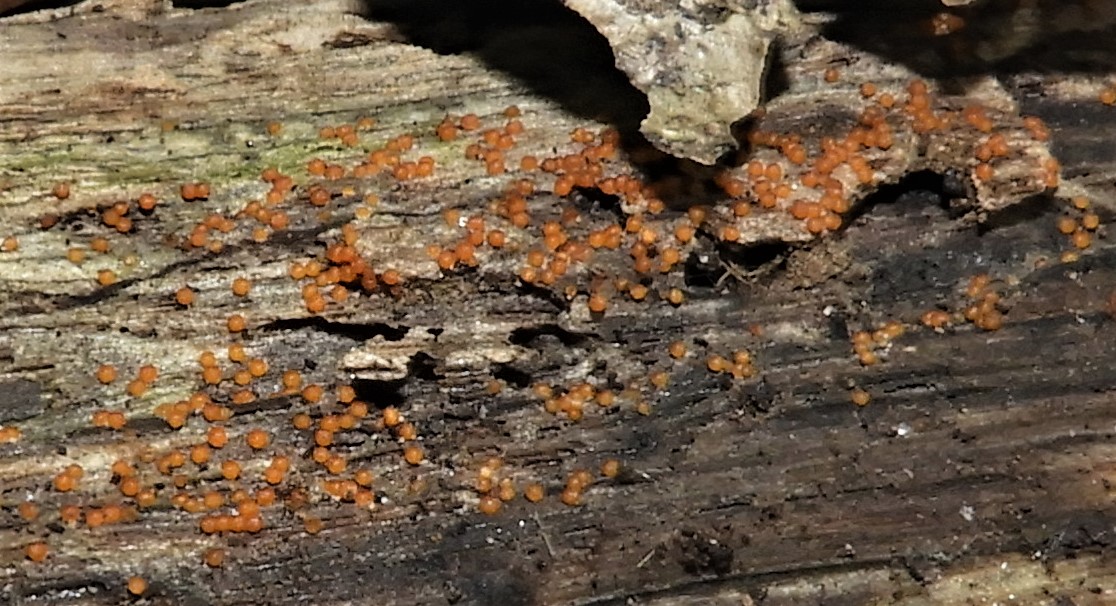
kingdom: Fungi
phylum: Ascomycota
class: Sordariomycetes
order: Hypocreales
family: Nectriaceae
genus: Hydropisphaera
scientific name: Hydropisphaera
